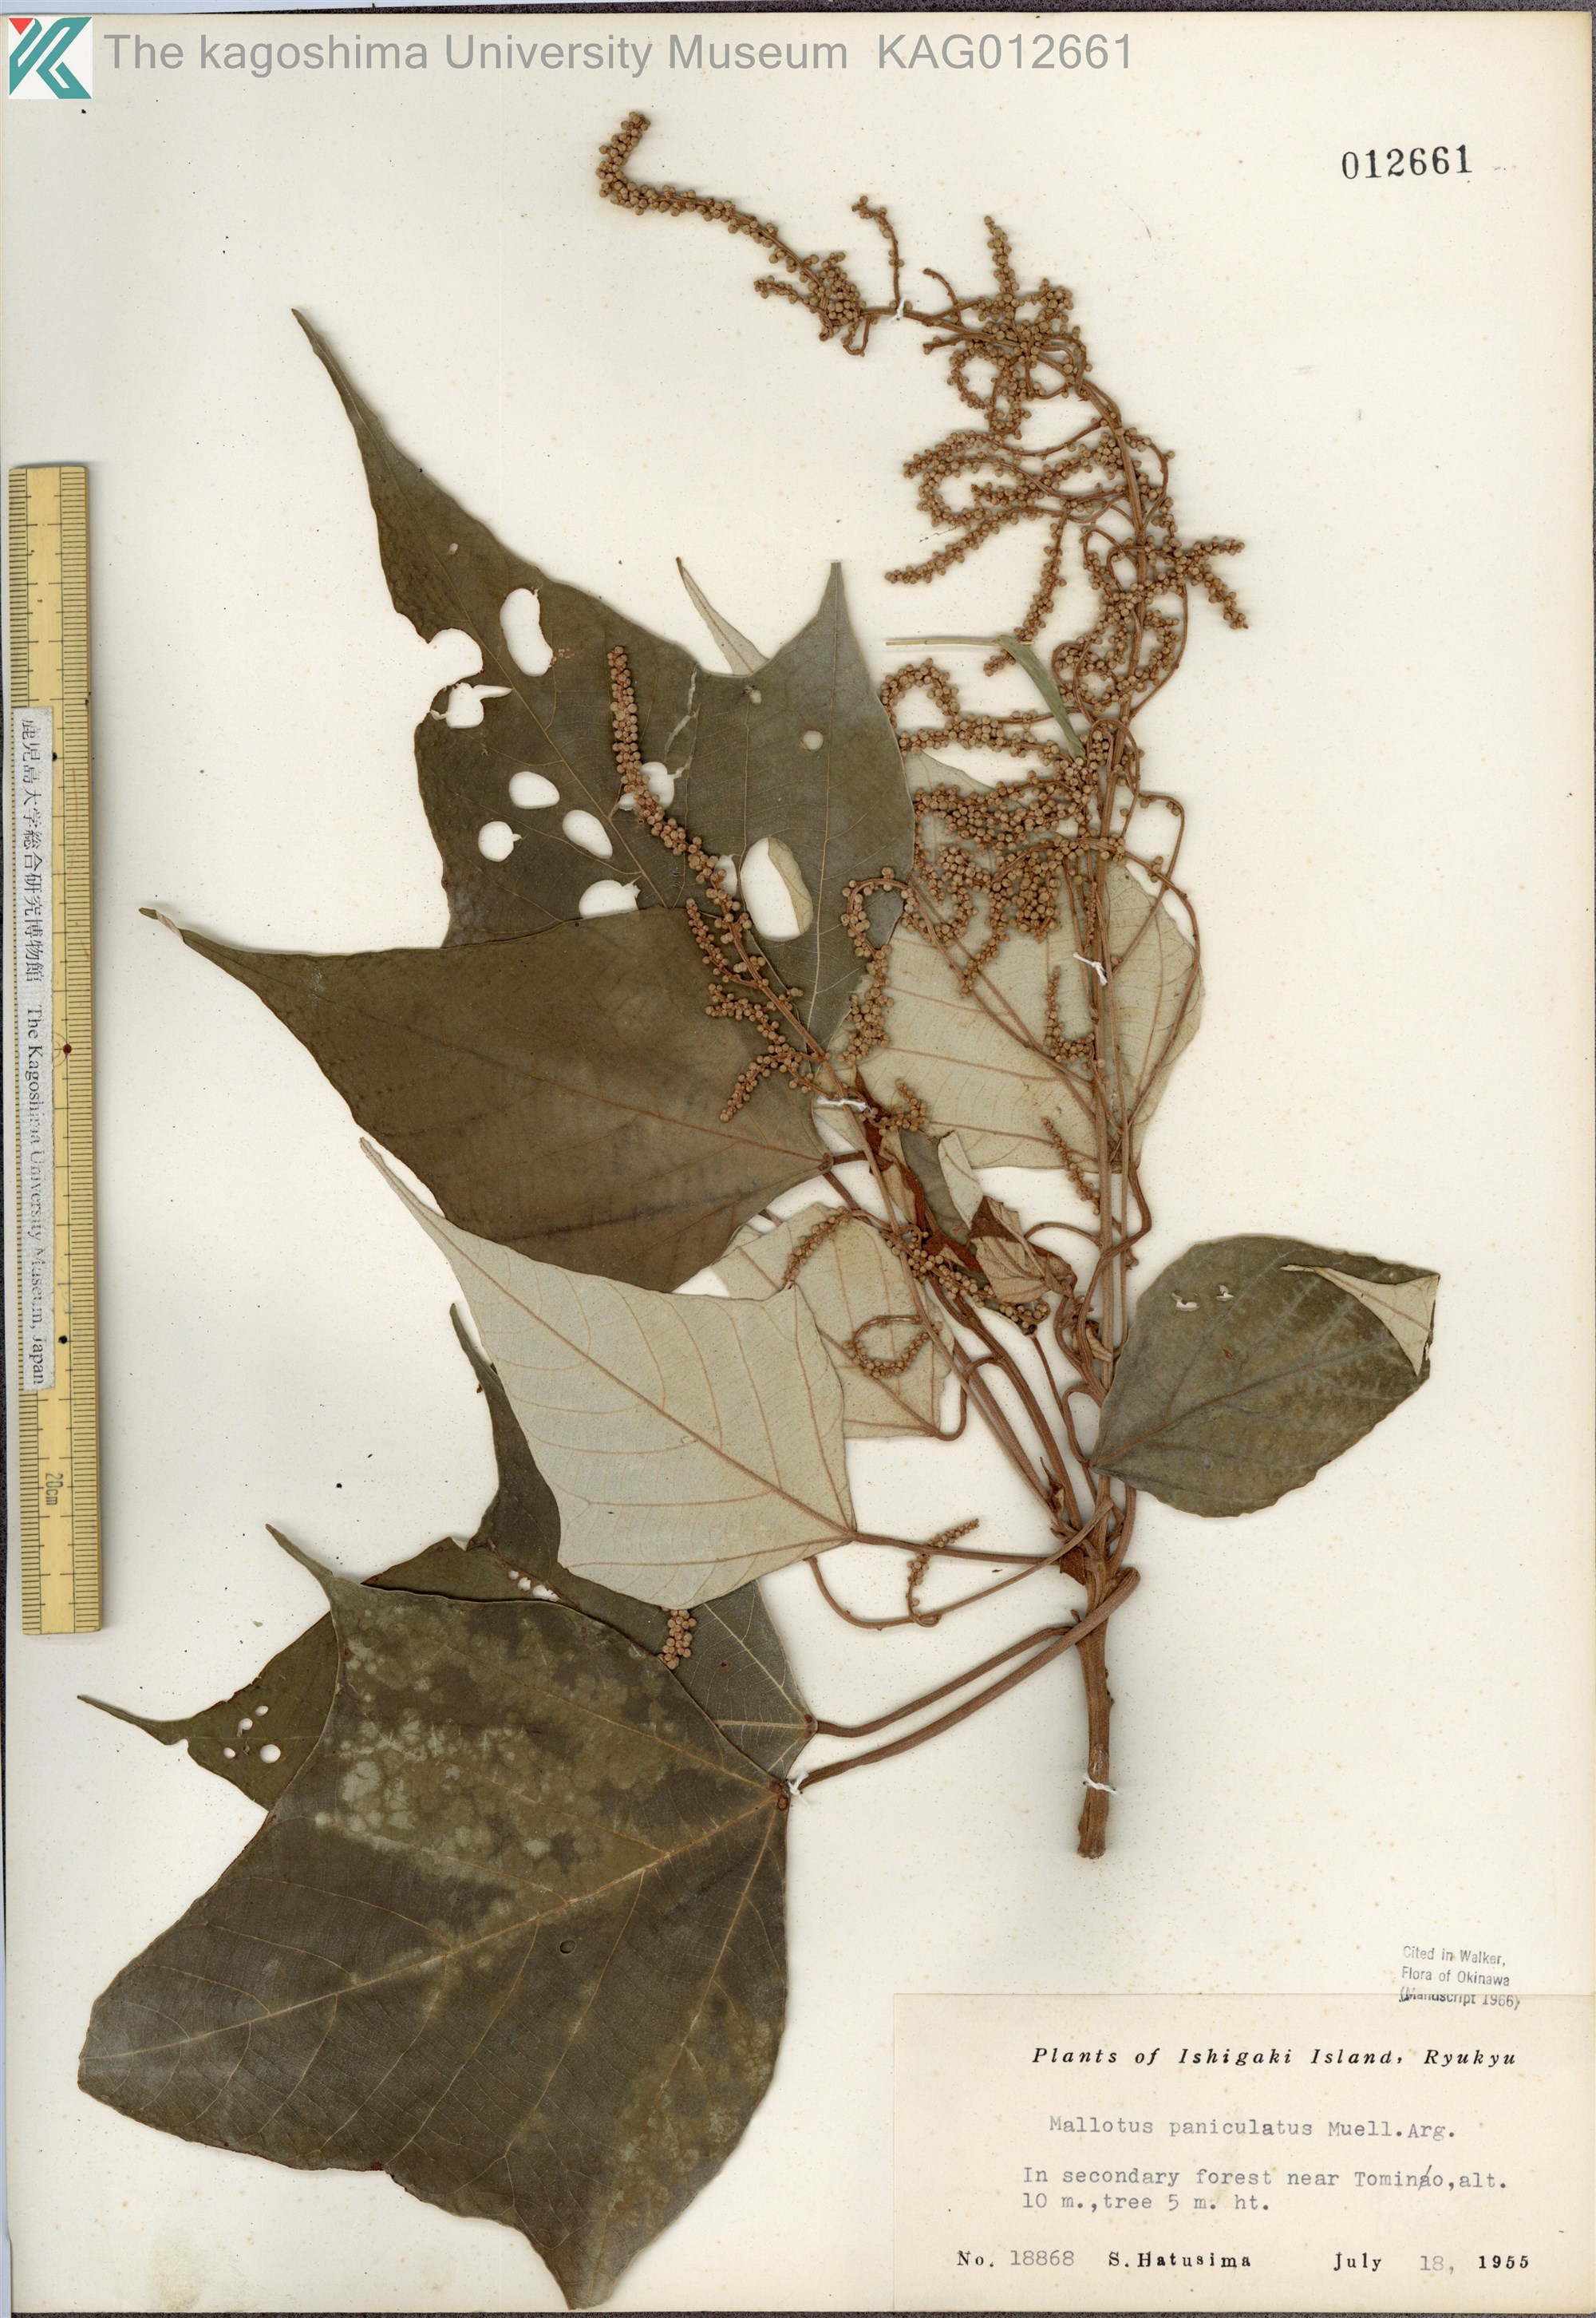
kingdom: Plantae
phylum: Tracheophyta
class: Magnoliopsida
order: Malpighiales
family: Euphorbiaceae
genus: Mallotus
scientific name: Mallotus paniculatus
